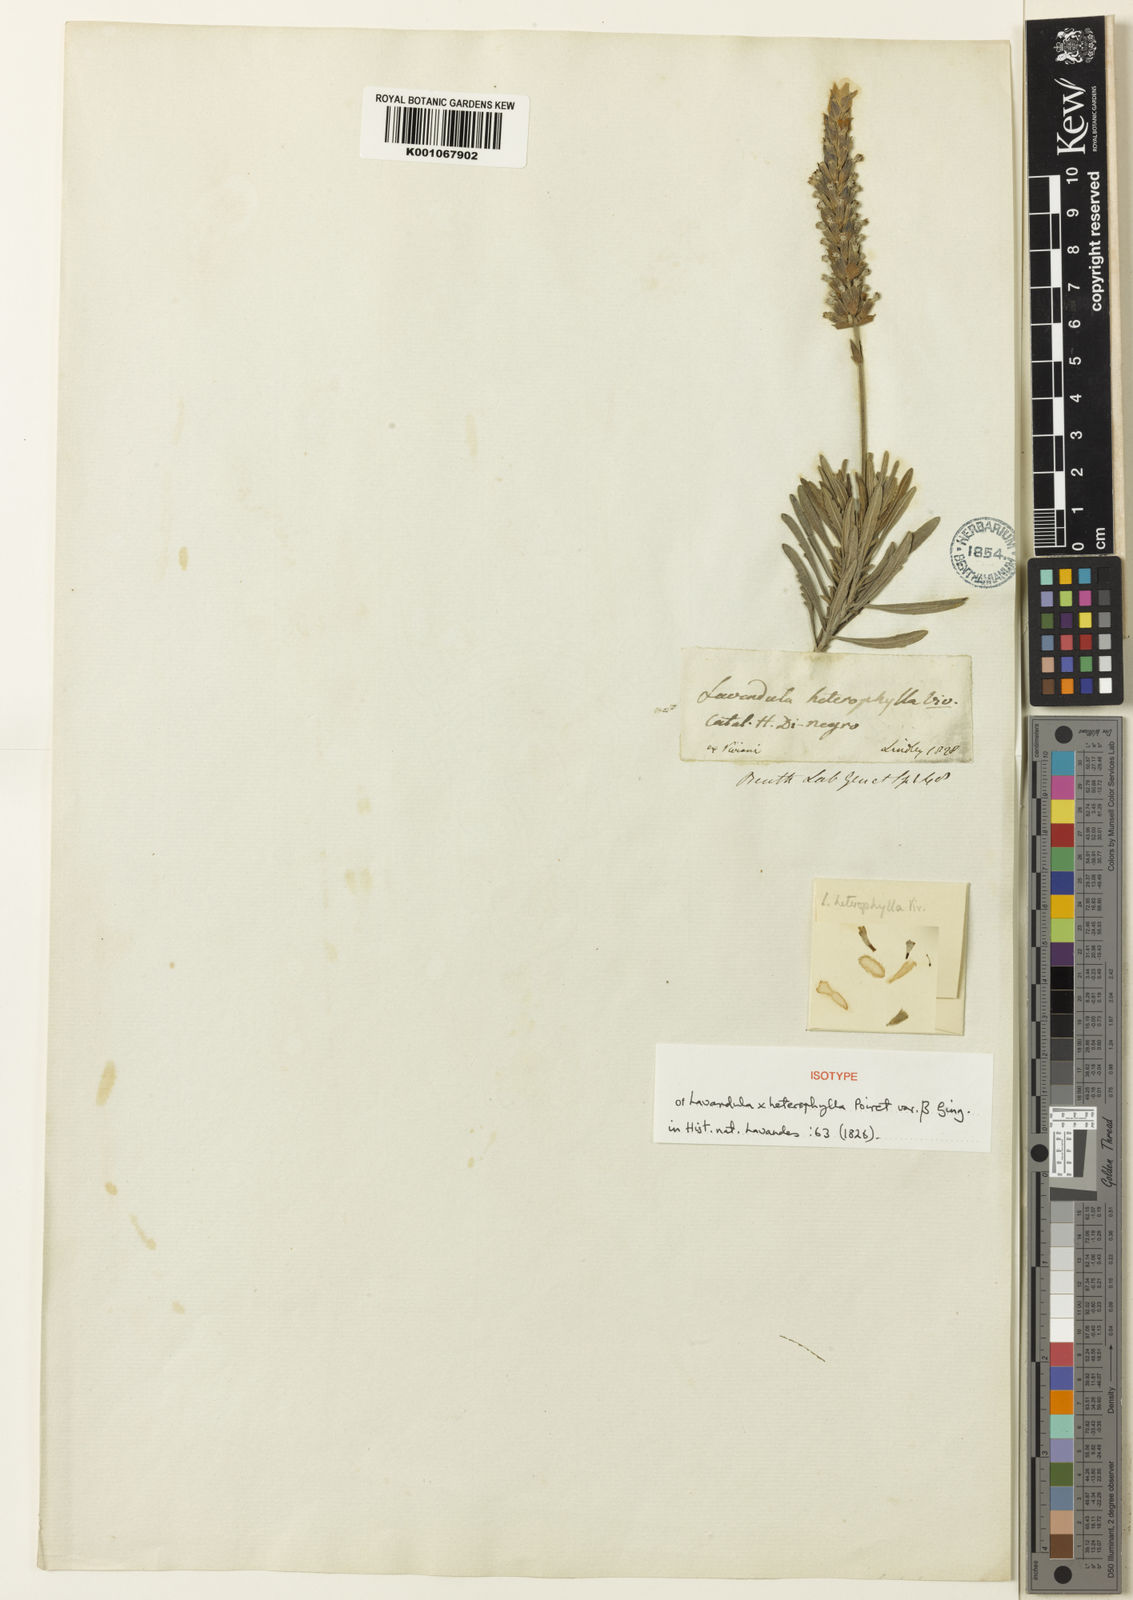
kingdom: Plantae
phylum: Tracheophyta
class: Magnoliopsida
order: Lamiales
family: Lamiaceae
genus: Lavandula
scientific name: Lavandula
